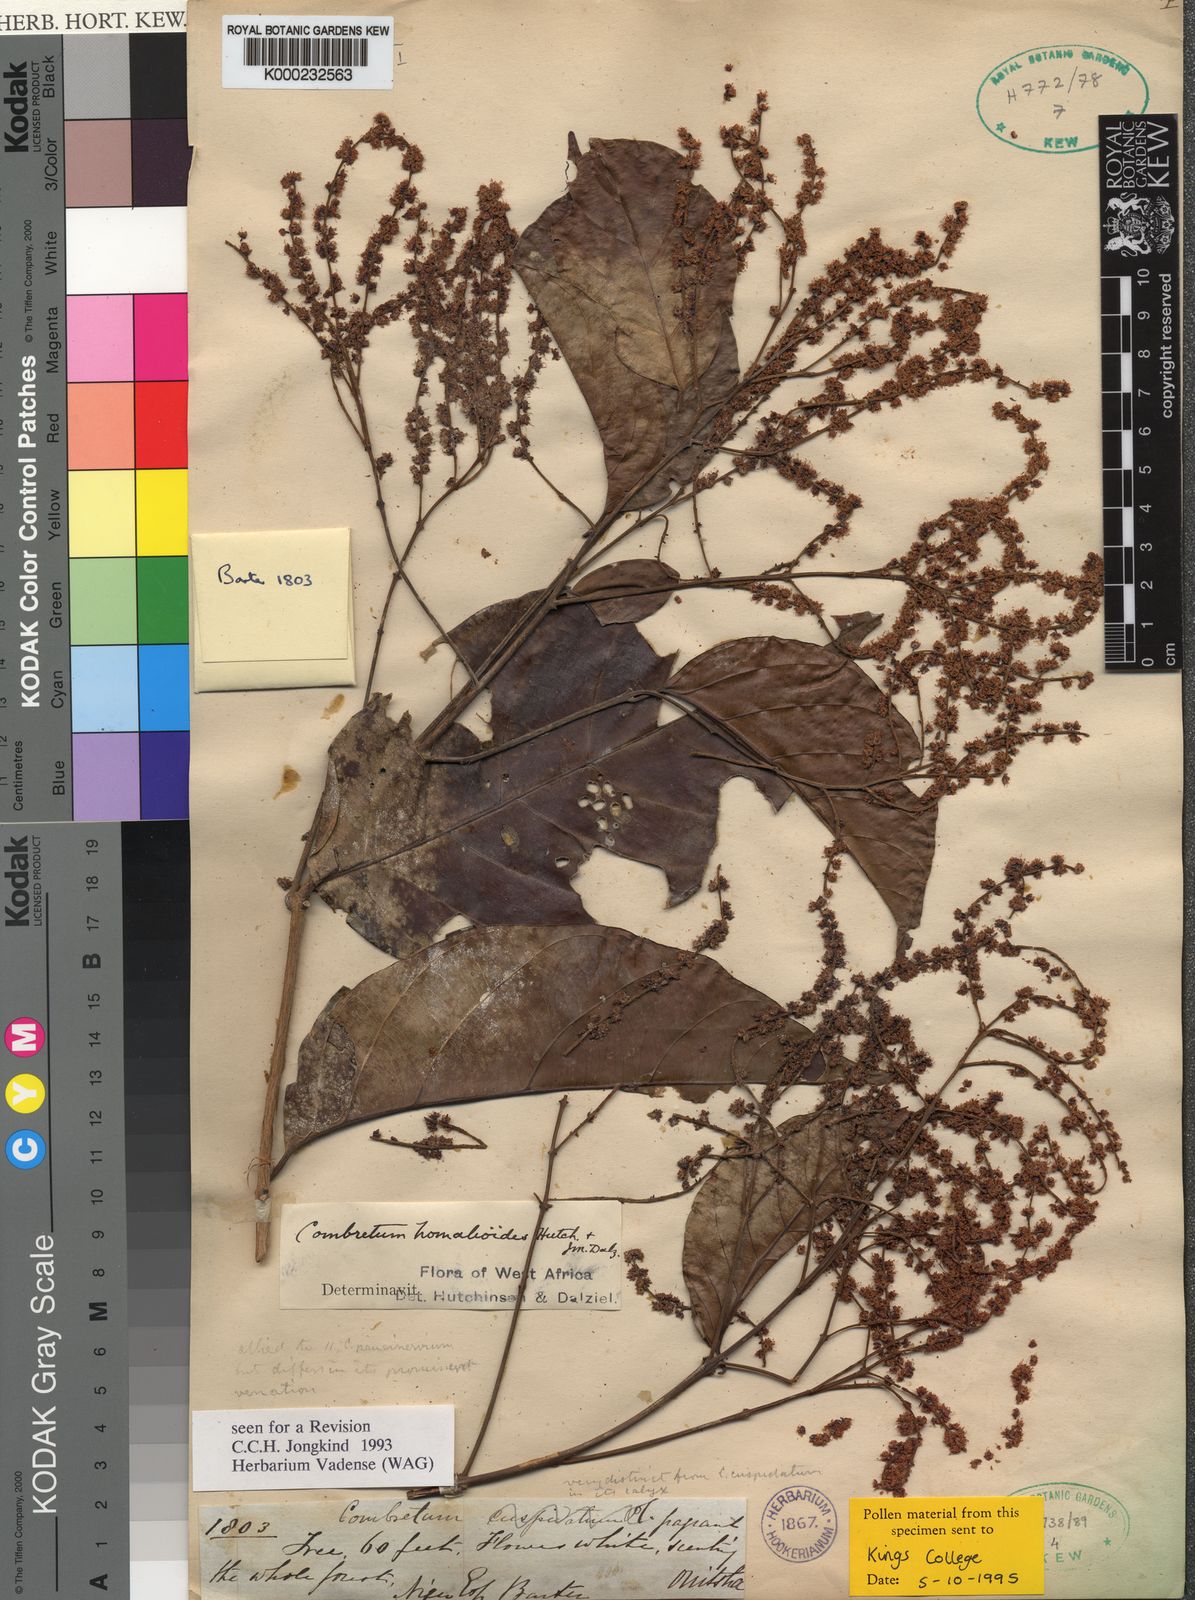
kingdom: Plantae
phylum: Tracheophyta
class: Magnoliopsida
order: Myrtales
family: Combretaceae
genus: Combretum
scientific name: Combretum homalioides
